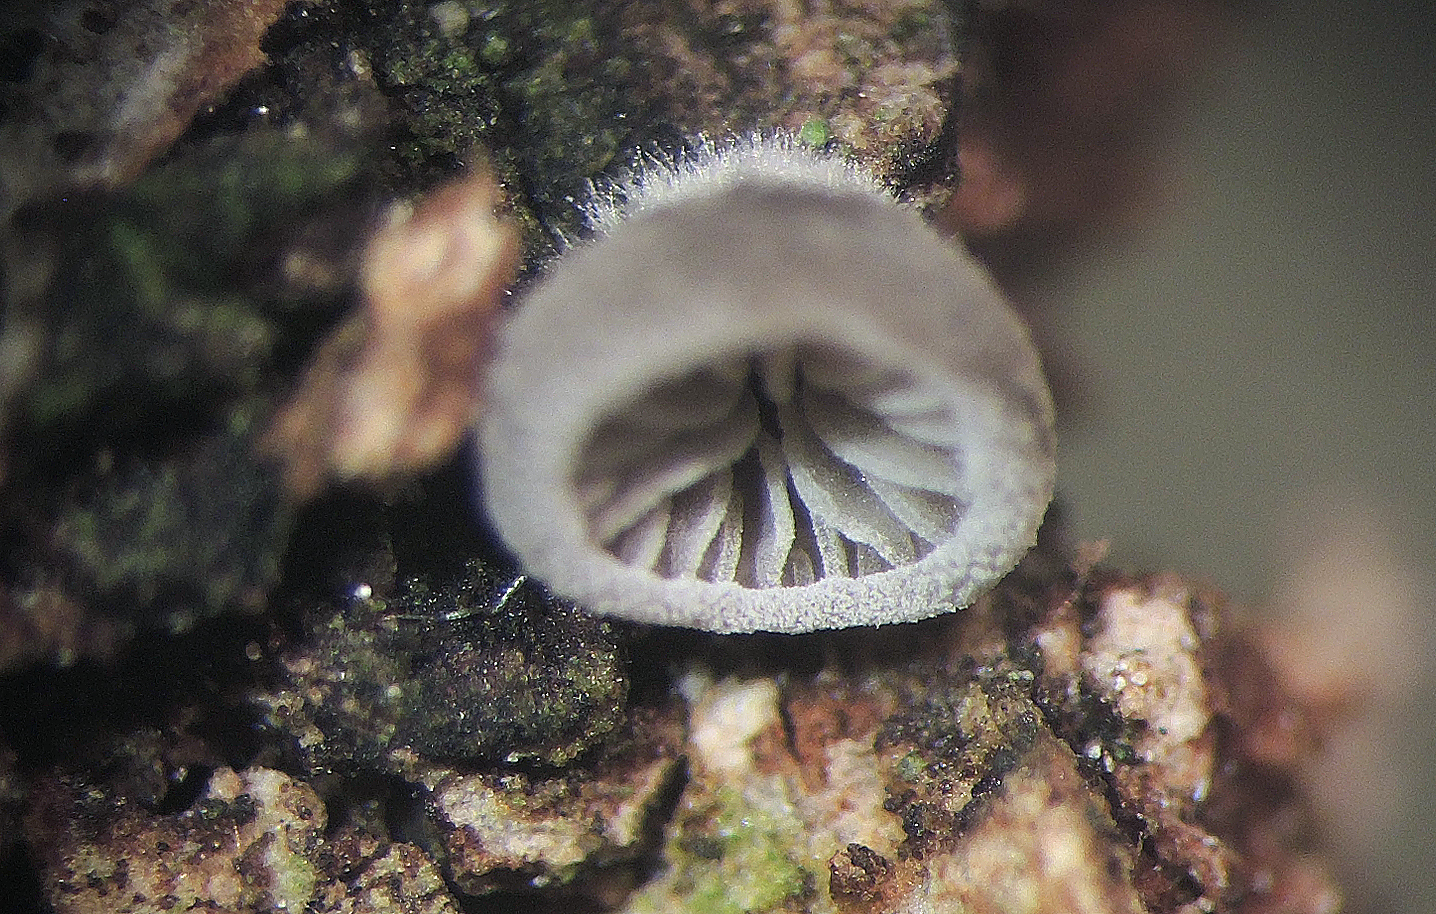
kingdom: Fungi
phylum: Basidiomycota
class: Agaricomycetes
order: Agaricales
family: Pleurotaceae
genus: Resupinatus
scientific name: Resupinatus applicatus
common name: lysfiltet barkhat
